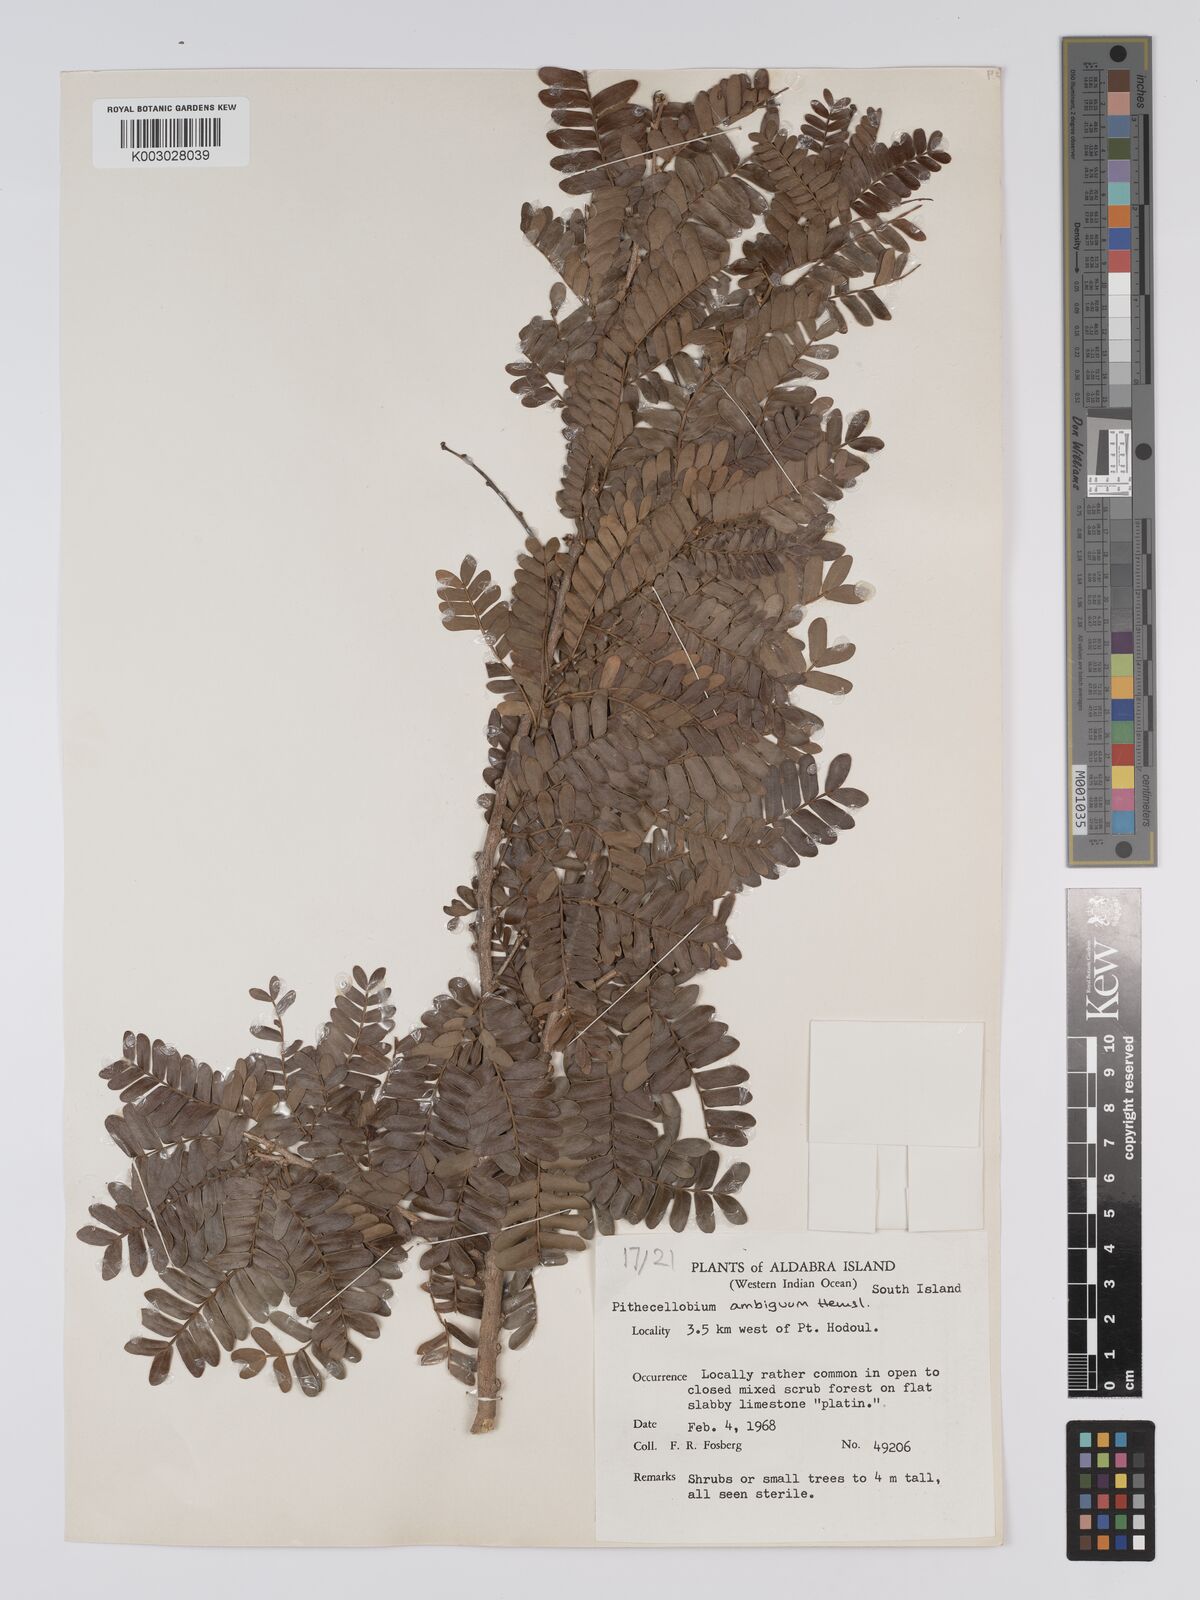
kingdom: Plantae
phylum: Tracheophyta
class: Magnoliopsida
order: Fabales
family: Fabaceae
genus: Viguieranthus
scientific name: Viguieranthus alternans
